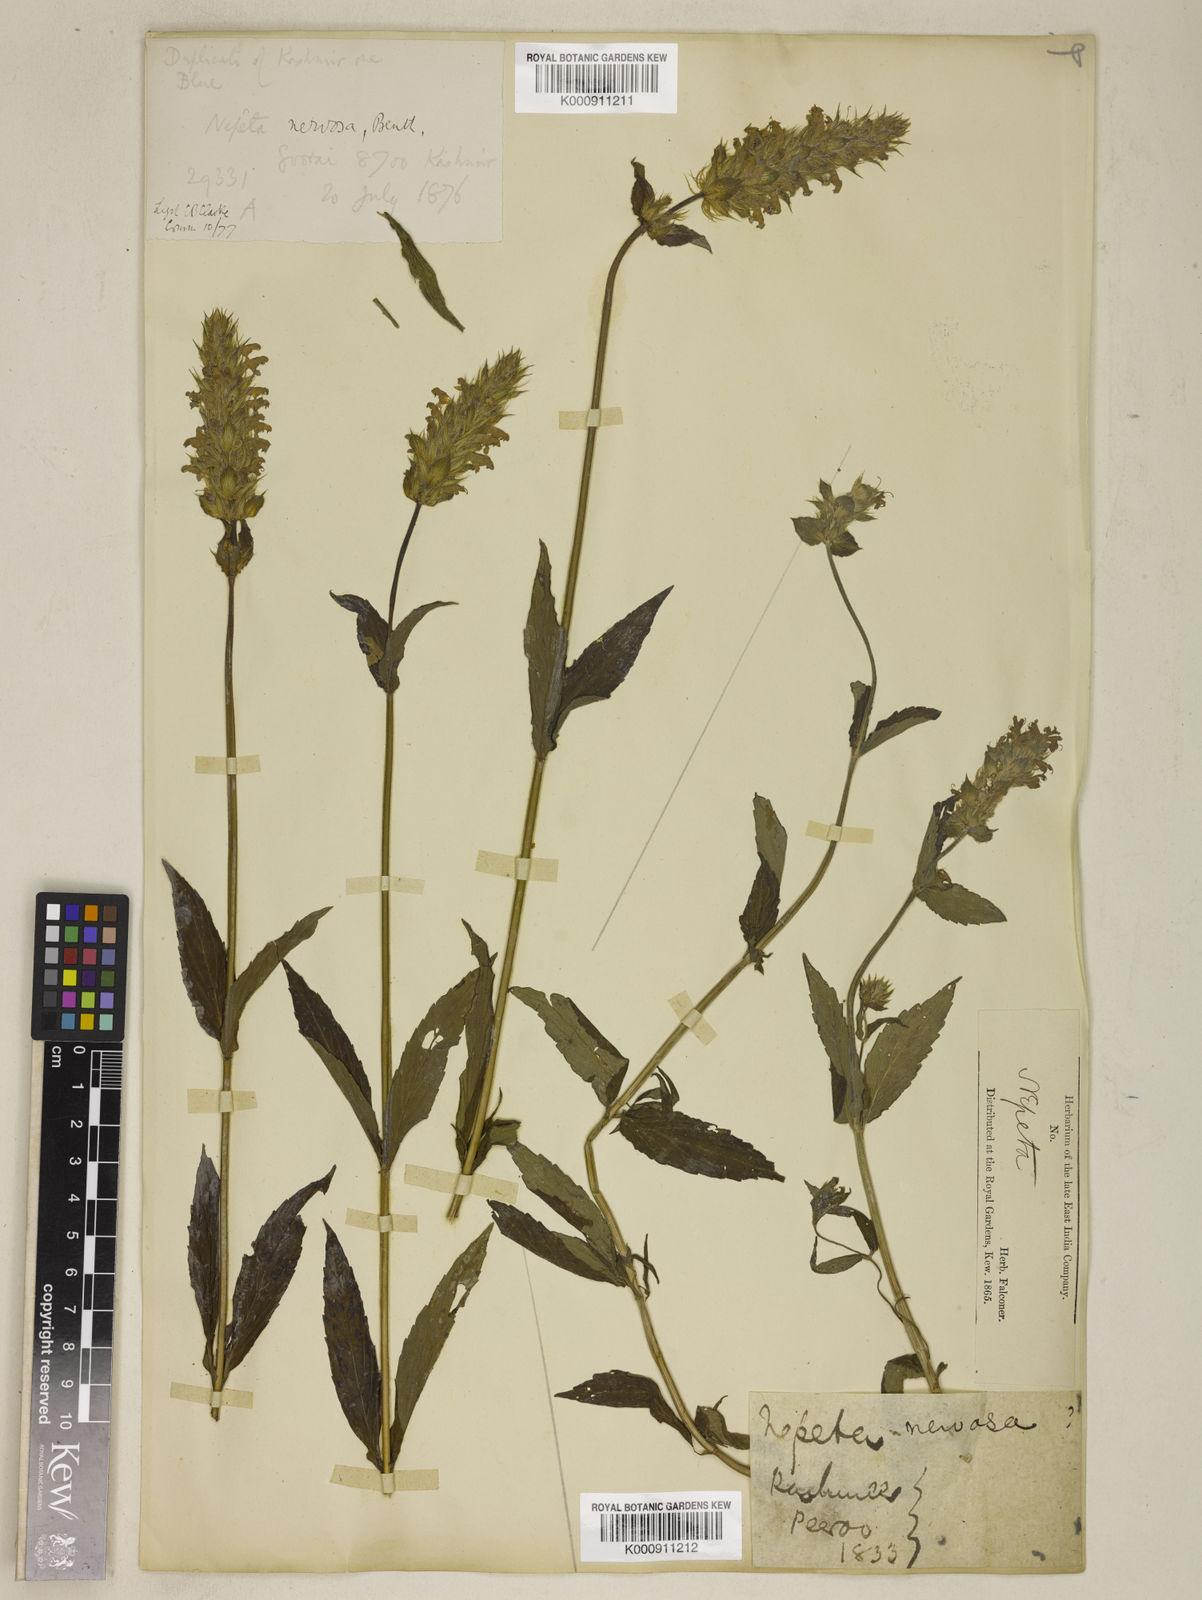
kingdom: Plantae
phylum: Tracheophyta
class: Magnoliopsida
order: Lamiales
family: Lamiaceae
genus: Nepeta
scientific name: Nepeta nervosa
